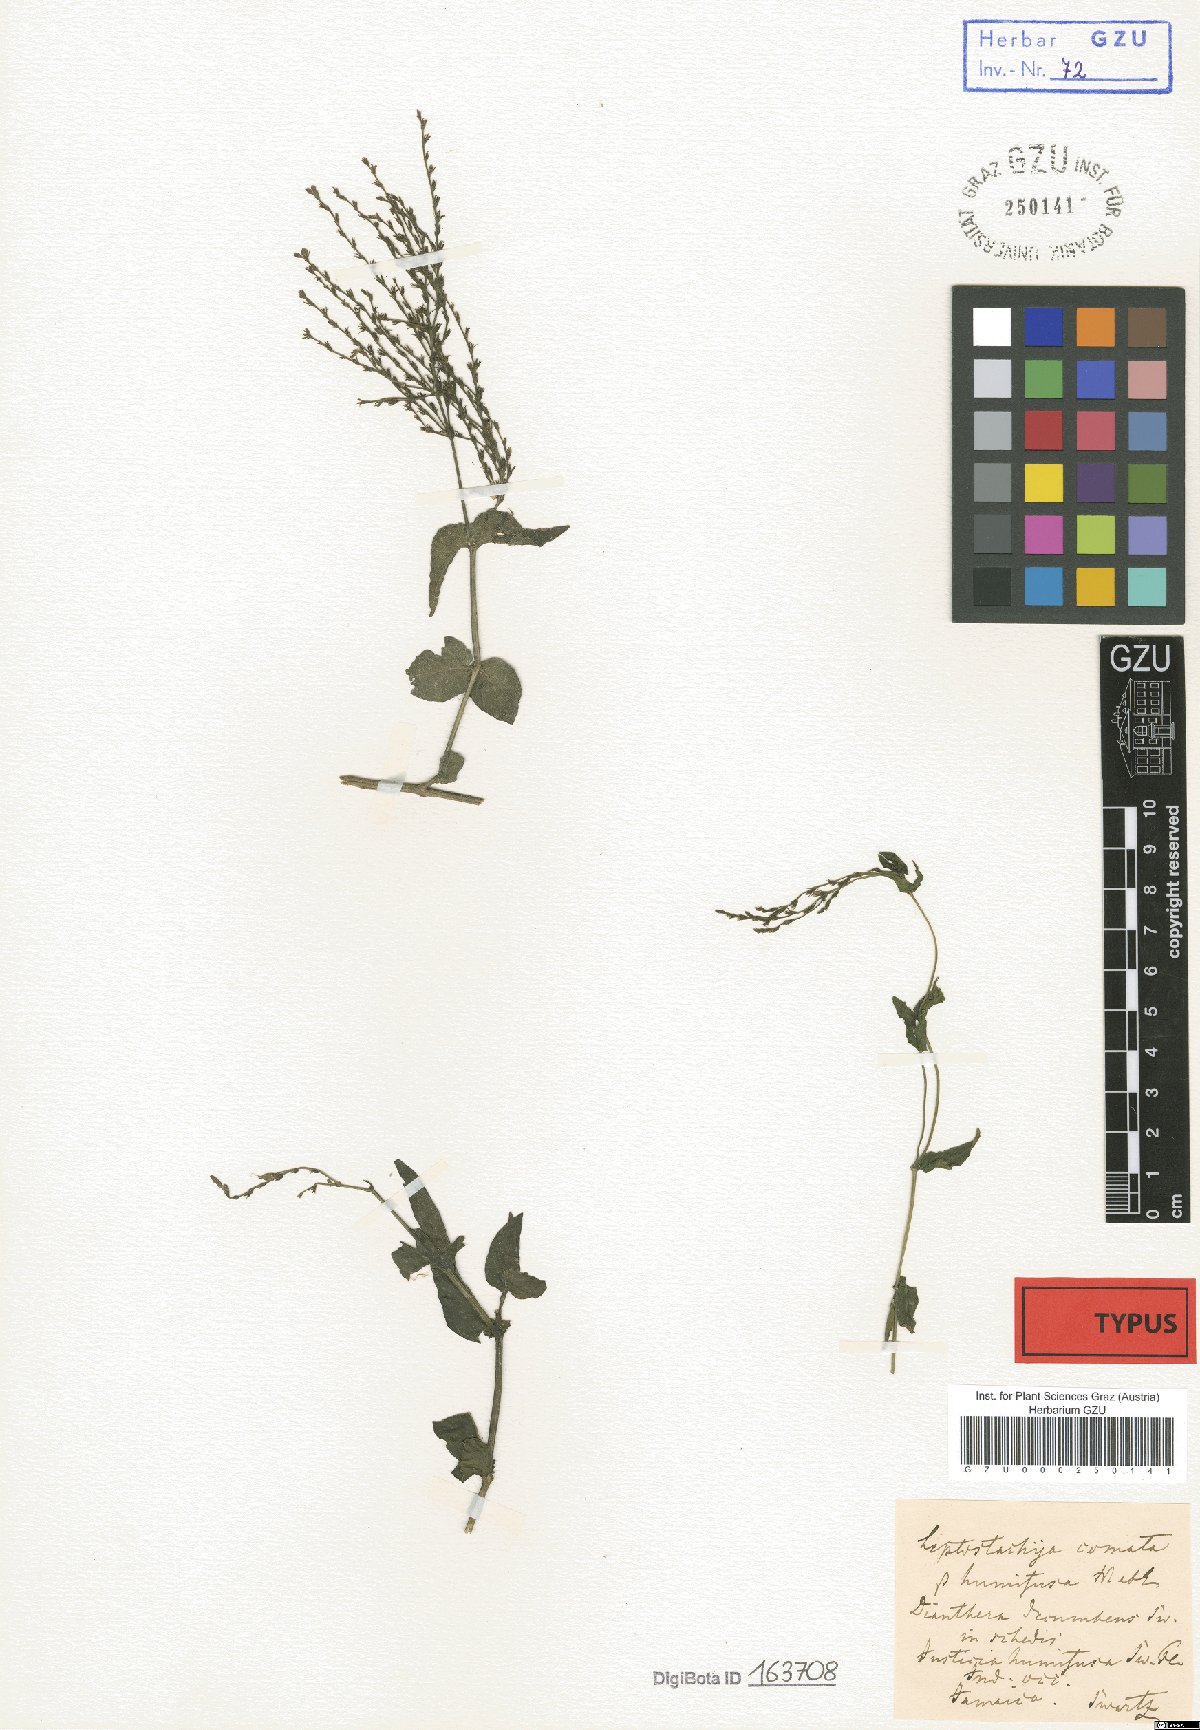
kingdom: Plantae
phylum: Tracheophyta
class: Magnoliopsida
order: Lamiales
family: Acanthaceae
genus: Dianthera
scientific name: Dianthera comata
